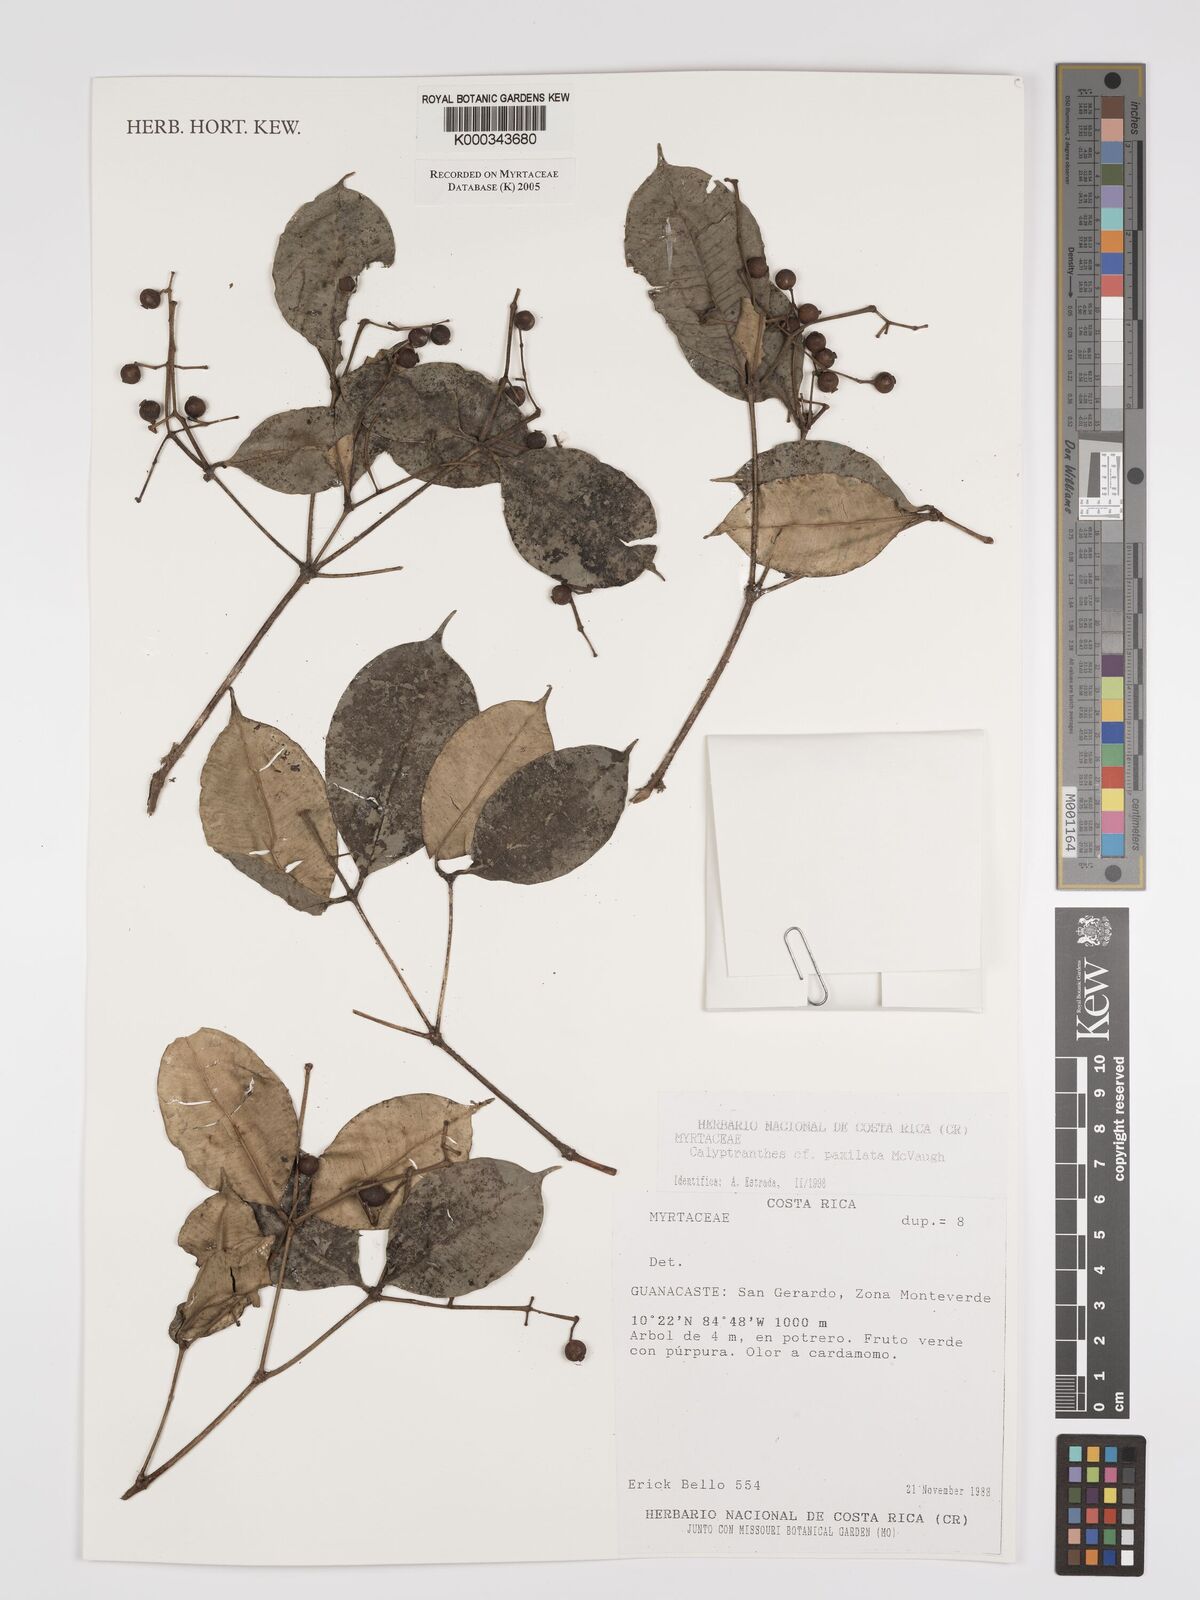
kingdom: Plantae
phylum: Tracheophyta
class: Magnoliopsida
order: Myrtales
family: Myrtaceae
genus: Myrcia
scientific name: Myrcia paxillata
